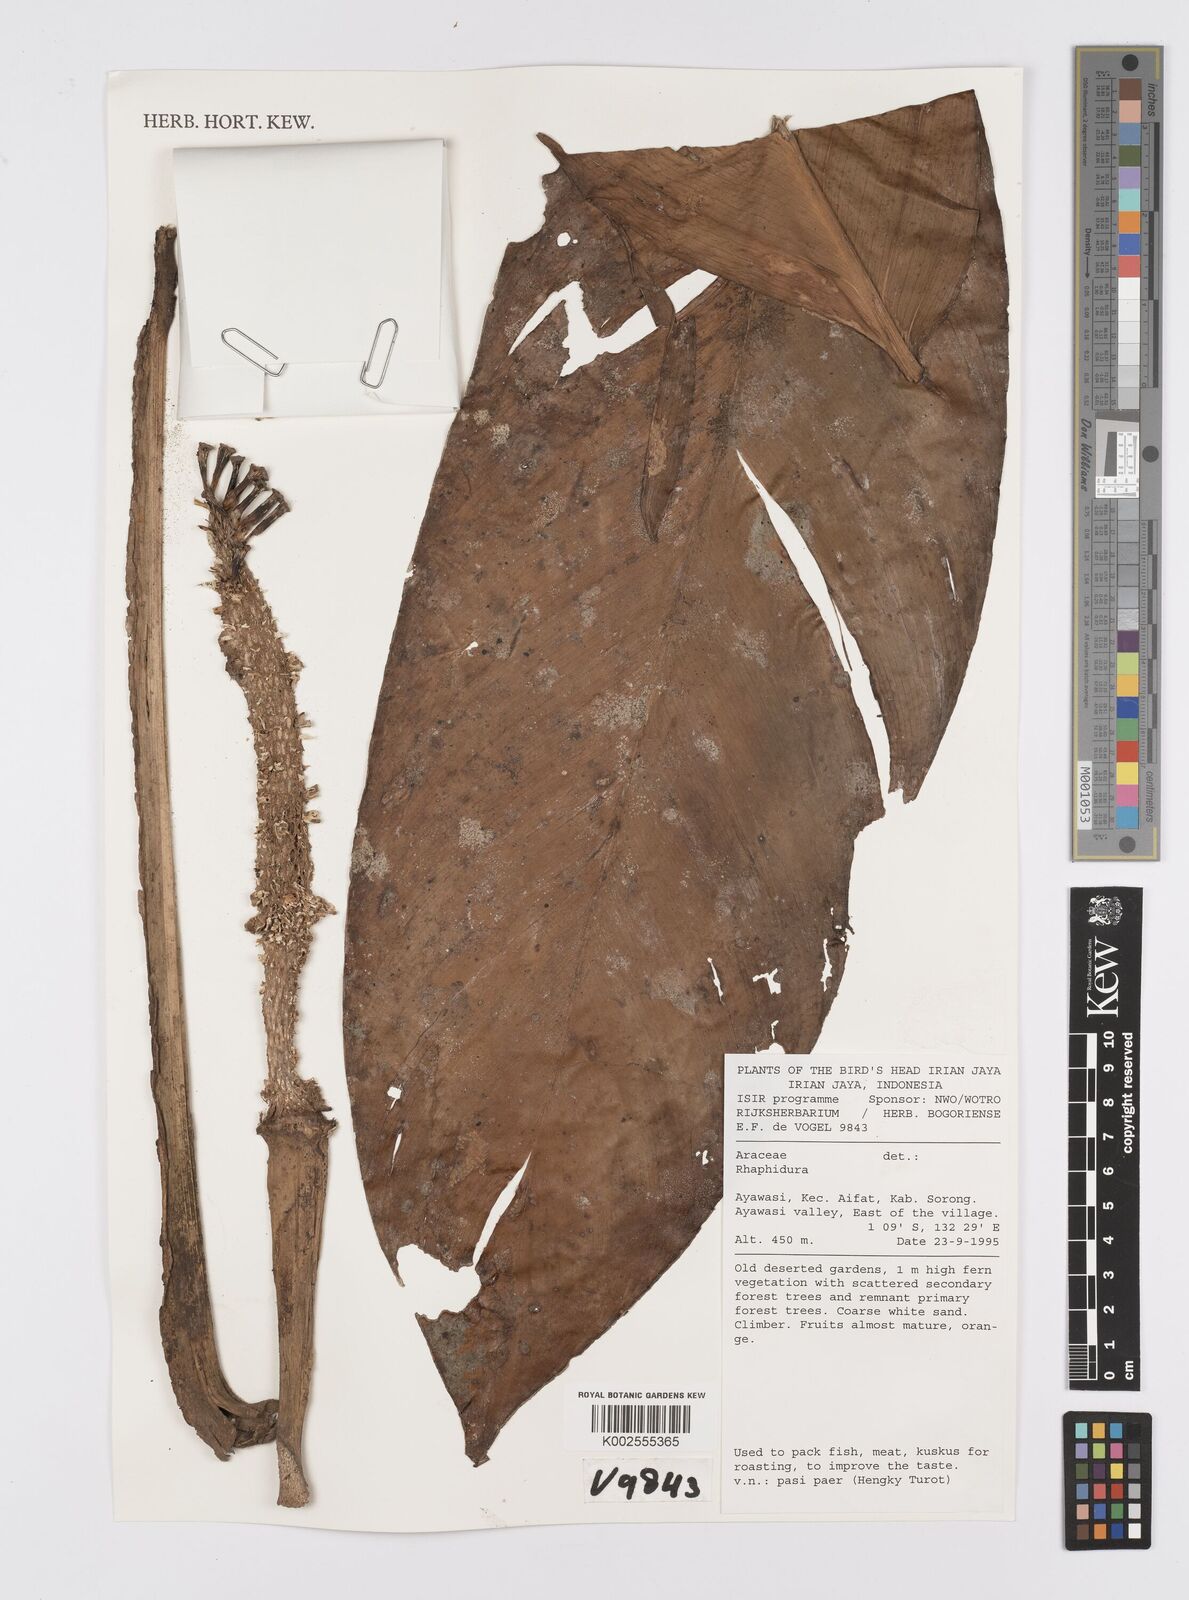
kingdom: Plantae
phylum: Tracheophyta
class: Liliopsida
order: Alismatales
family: Araceae
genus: Epipremnum
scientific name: Epipremnum amplissimum
